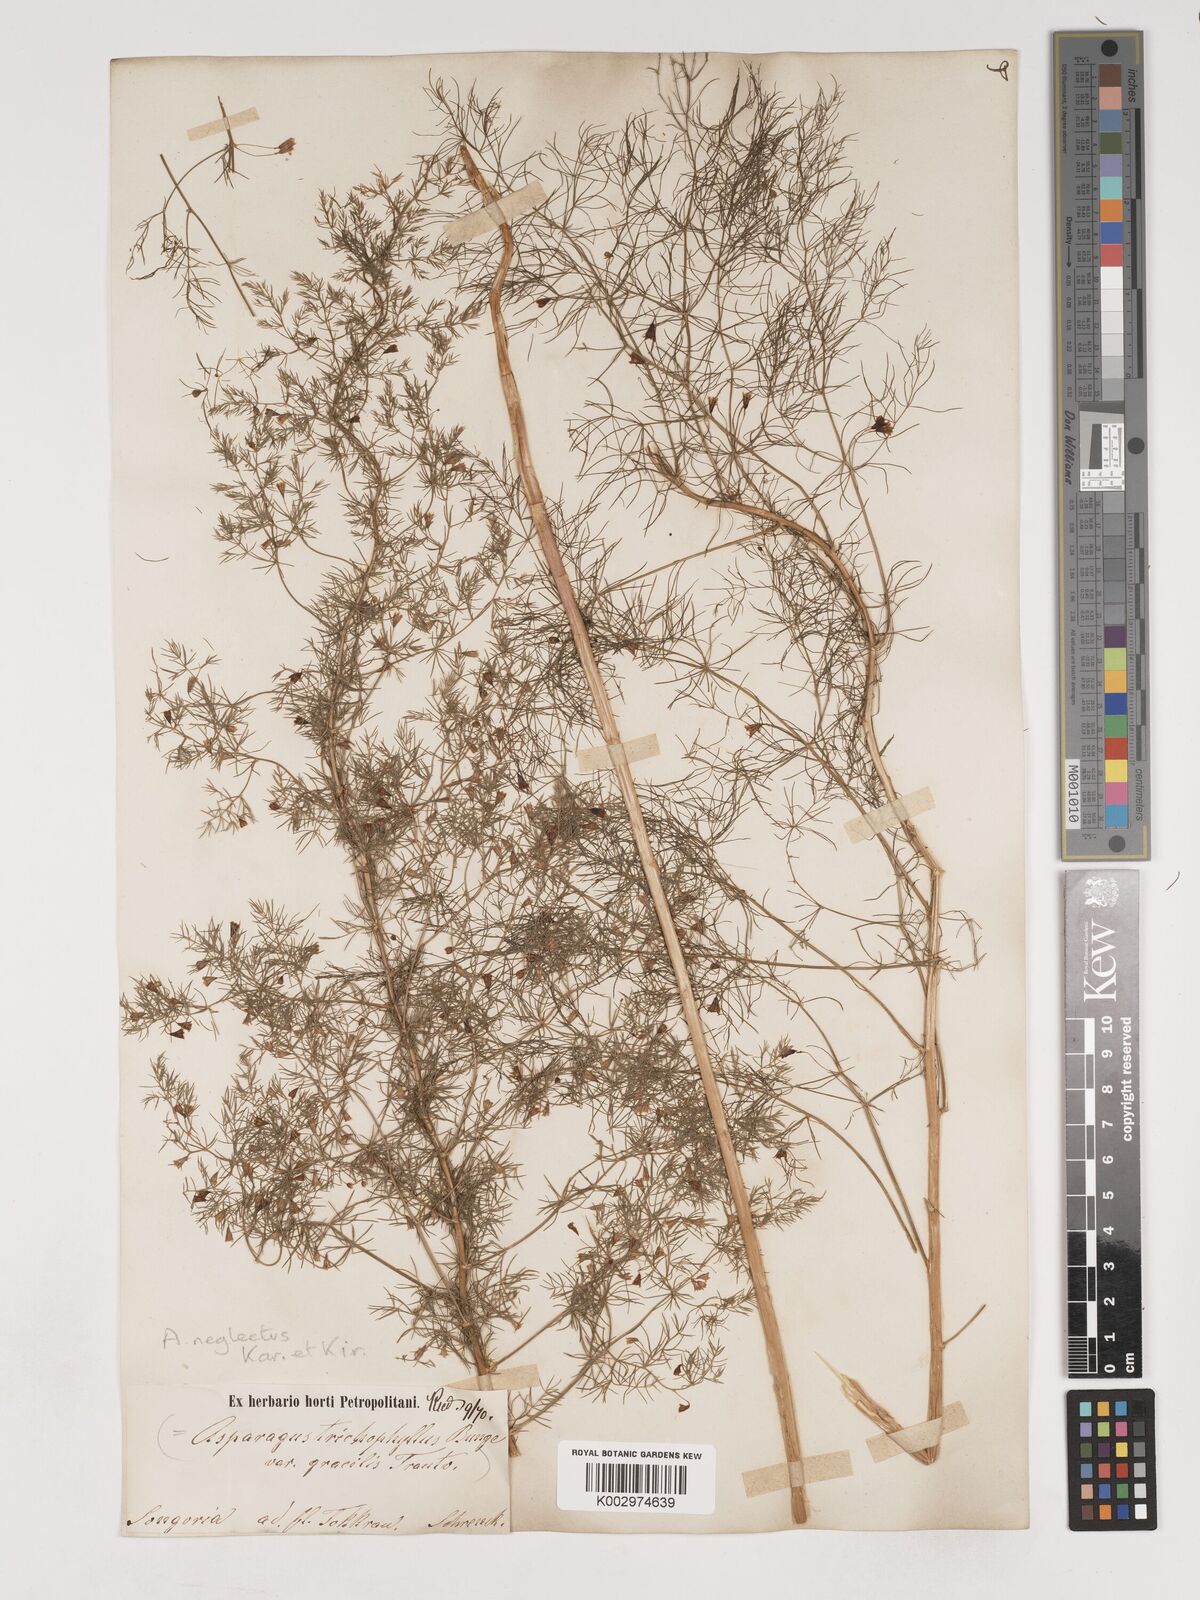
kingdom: Plantae
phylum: Tracheophyta
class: Liliopsida
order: Asparagales
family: Asparagaceae
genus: Asparagus
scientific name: Asparagus neglectus
